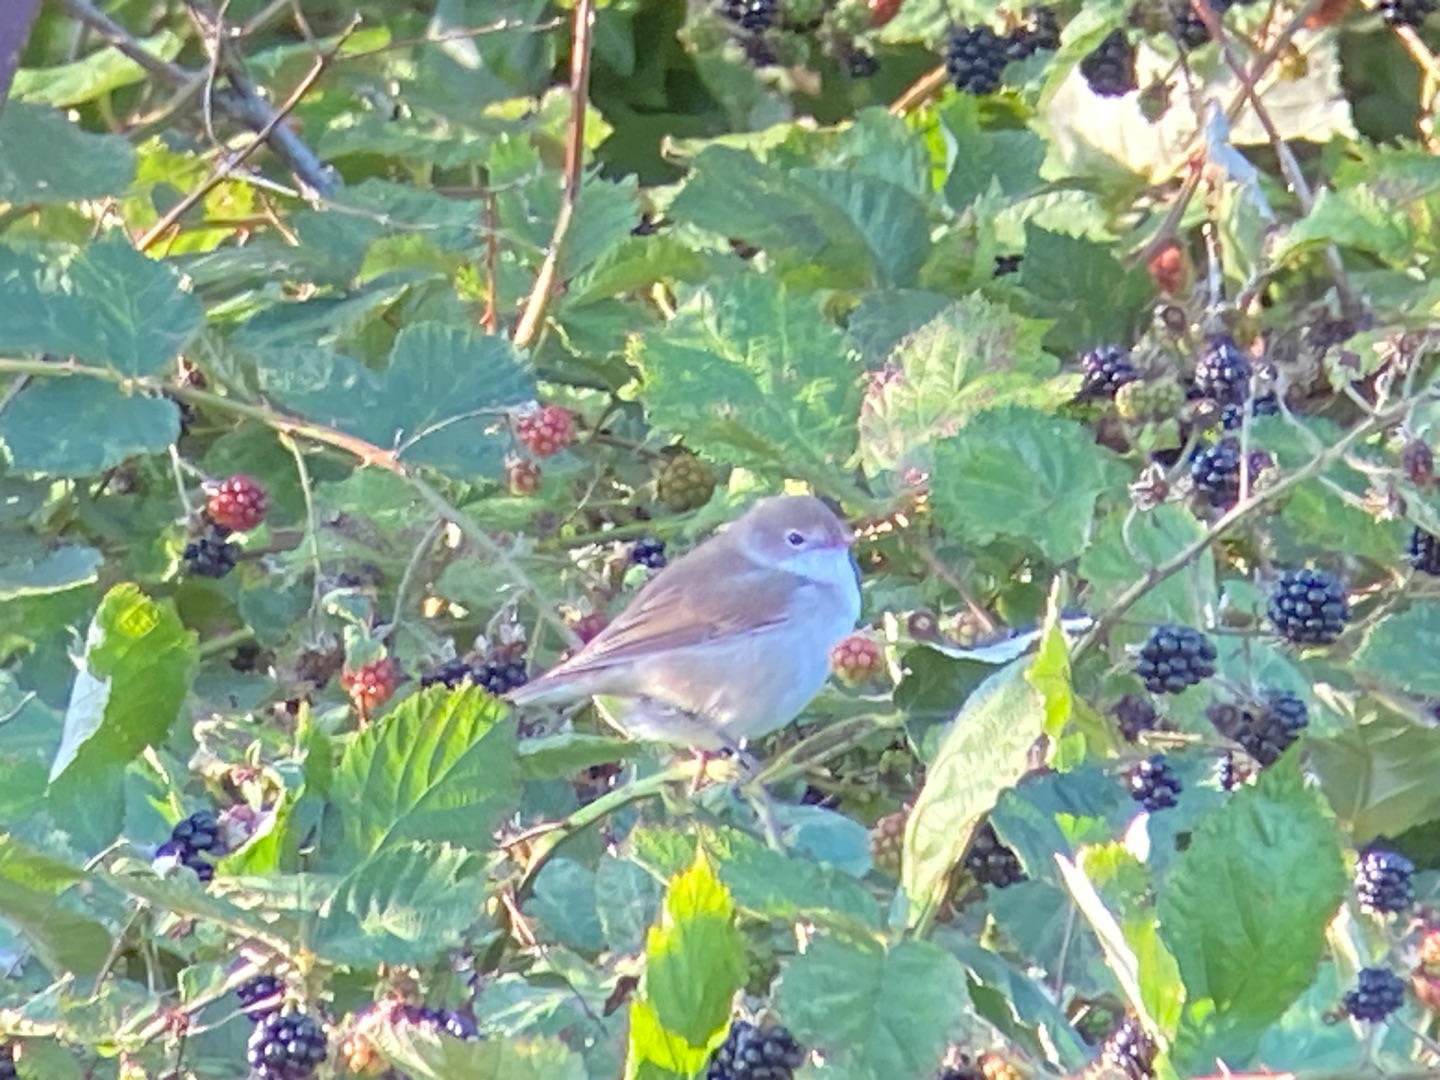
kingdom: Animalia
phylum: Chordata
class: Aves
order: Passeriformes
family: Sylviidae
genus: Sylvia
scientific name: Sylvia communis
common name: Tornsanger
